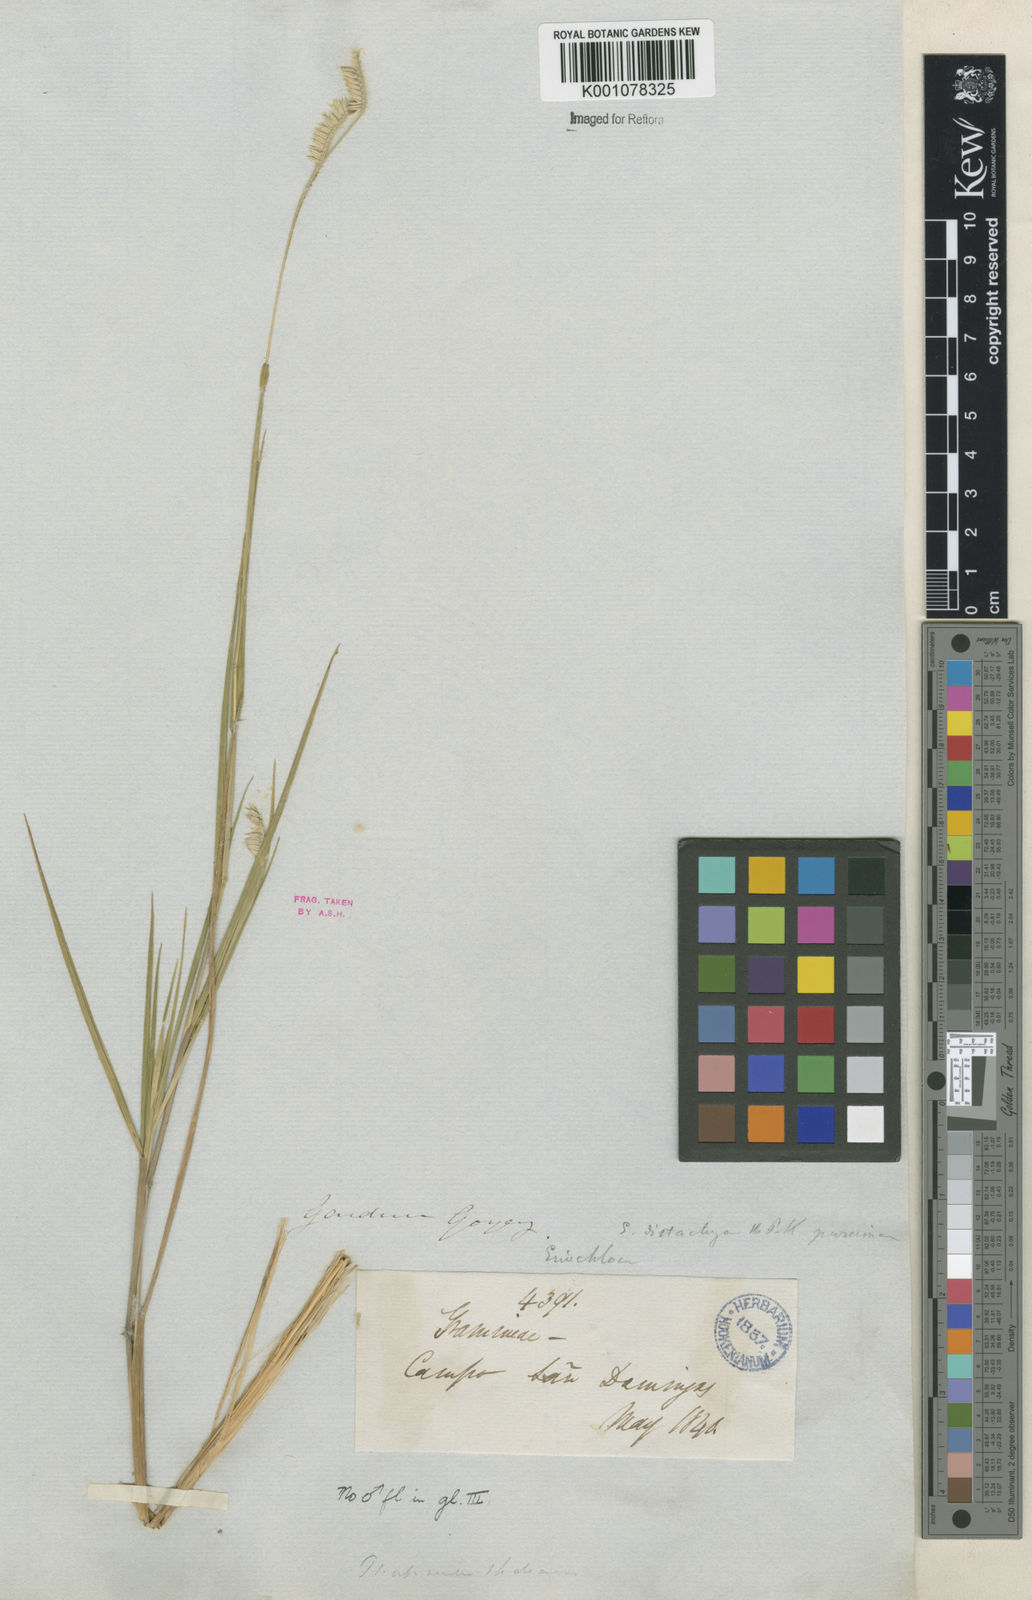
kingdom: Plantae
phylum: Tracheophyta
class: Liliopsida
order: Poales
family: Poaceae
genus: Eriochloa
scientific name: Eriochloa distachya
